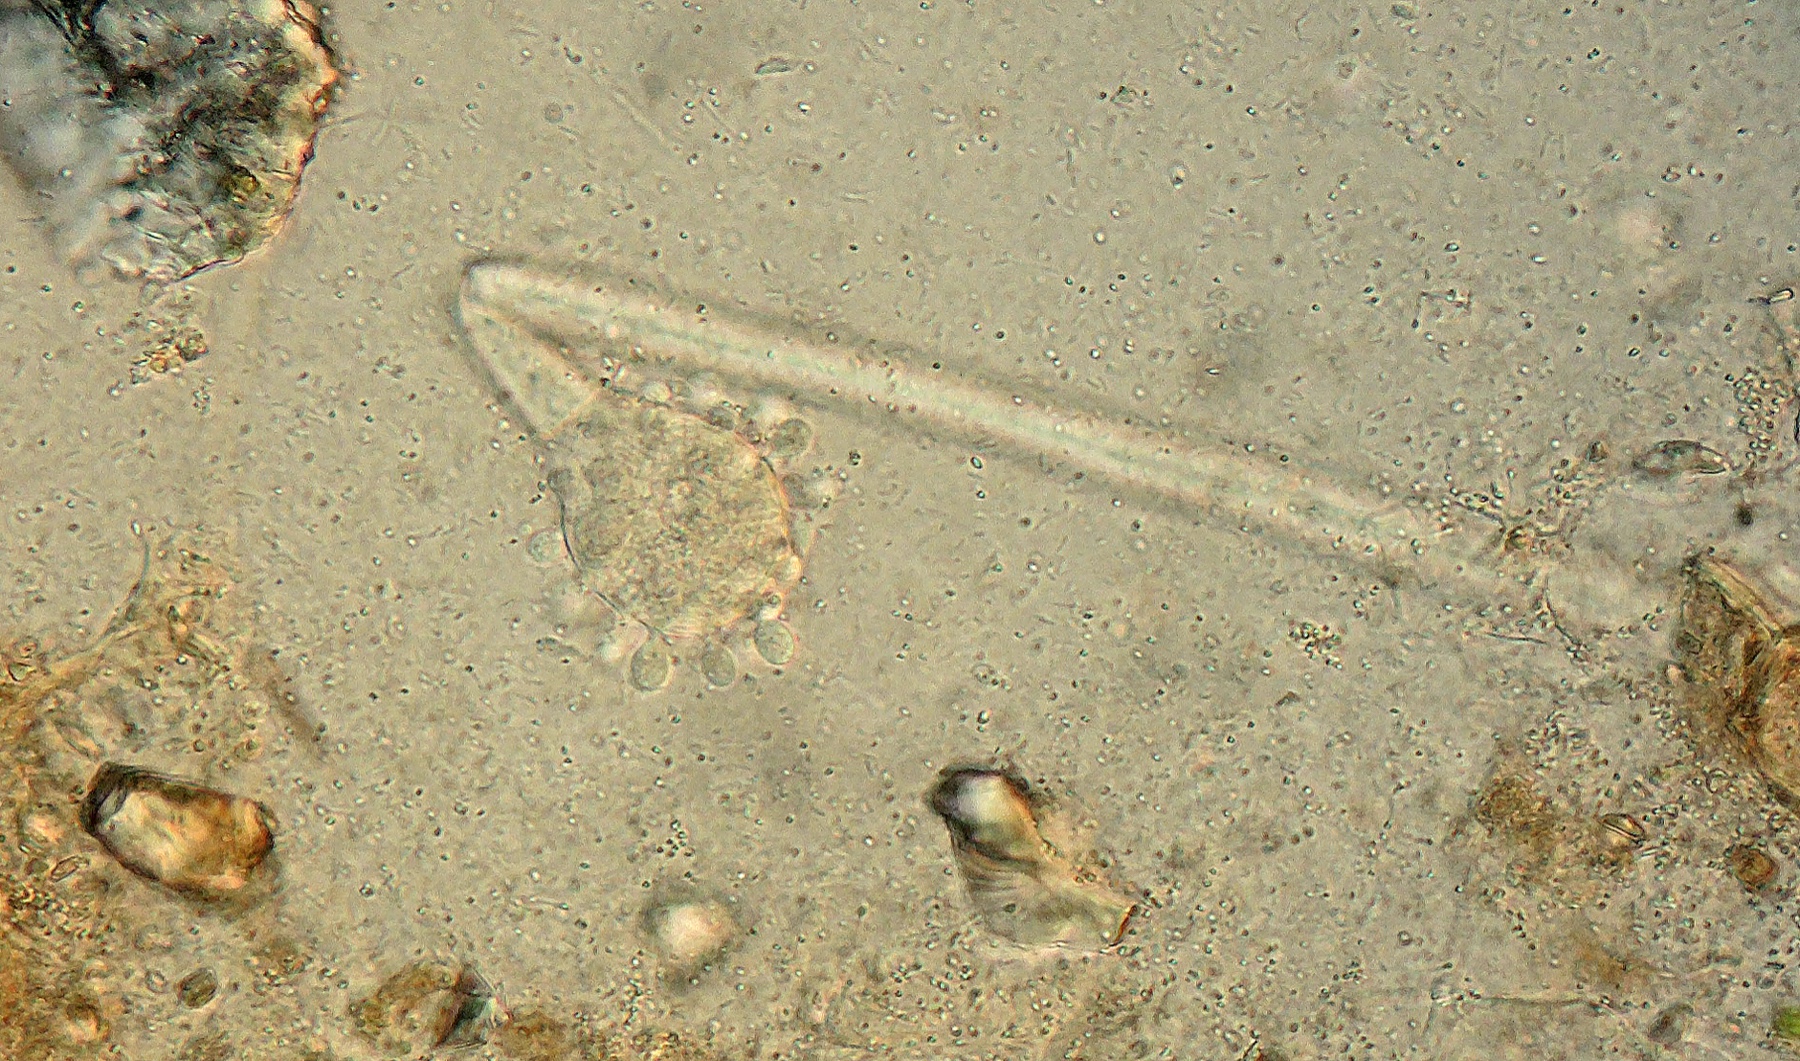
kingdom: Fungi
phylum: Ascomycota
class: Pezizomycetes
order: Pezizales
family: Pezizaceae
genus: Oedocephalum
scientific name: Oedocephalum glomerulosum
